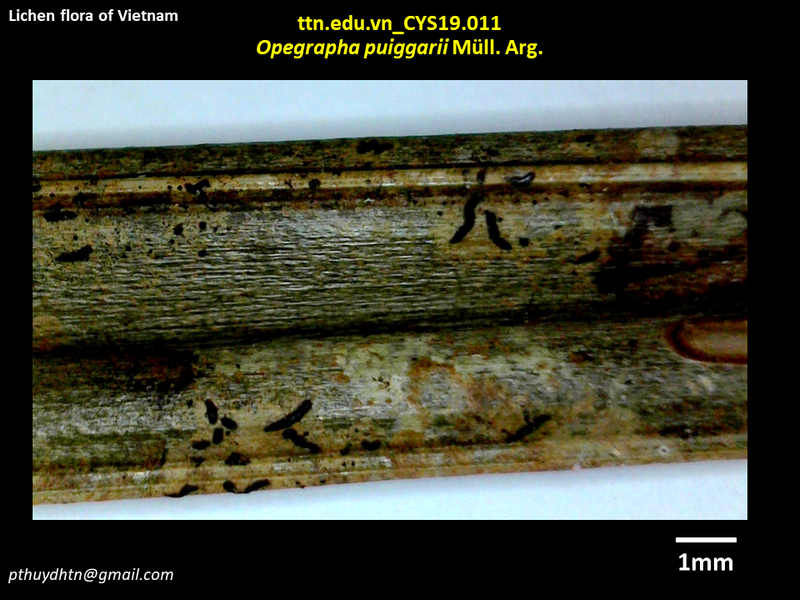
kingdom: Fungi
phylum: Ascomycota
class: Arthoniomycetes
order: Arthoniales
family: Opegraphaceae
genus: Fouragea
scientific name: Fouragea puiggarii
